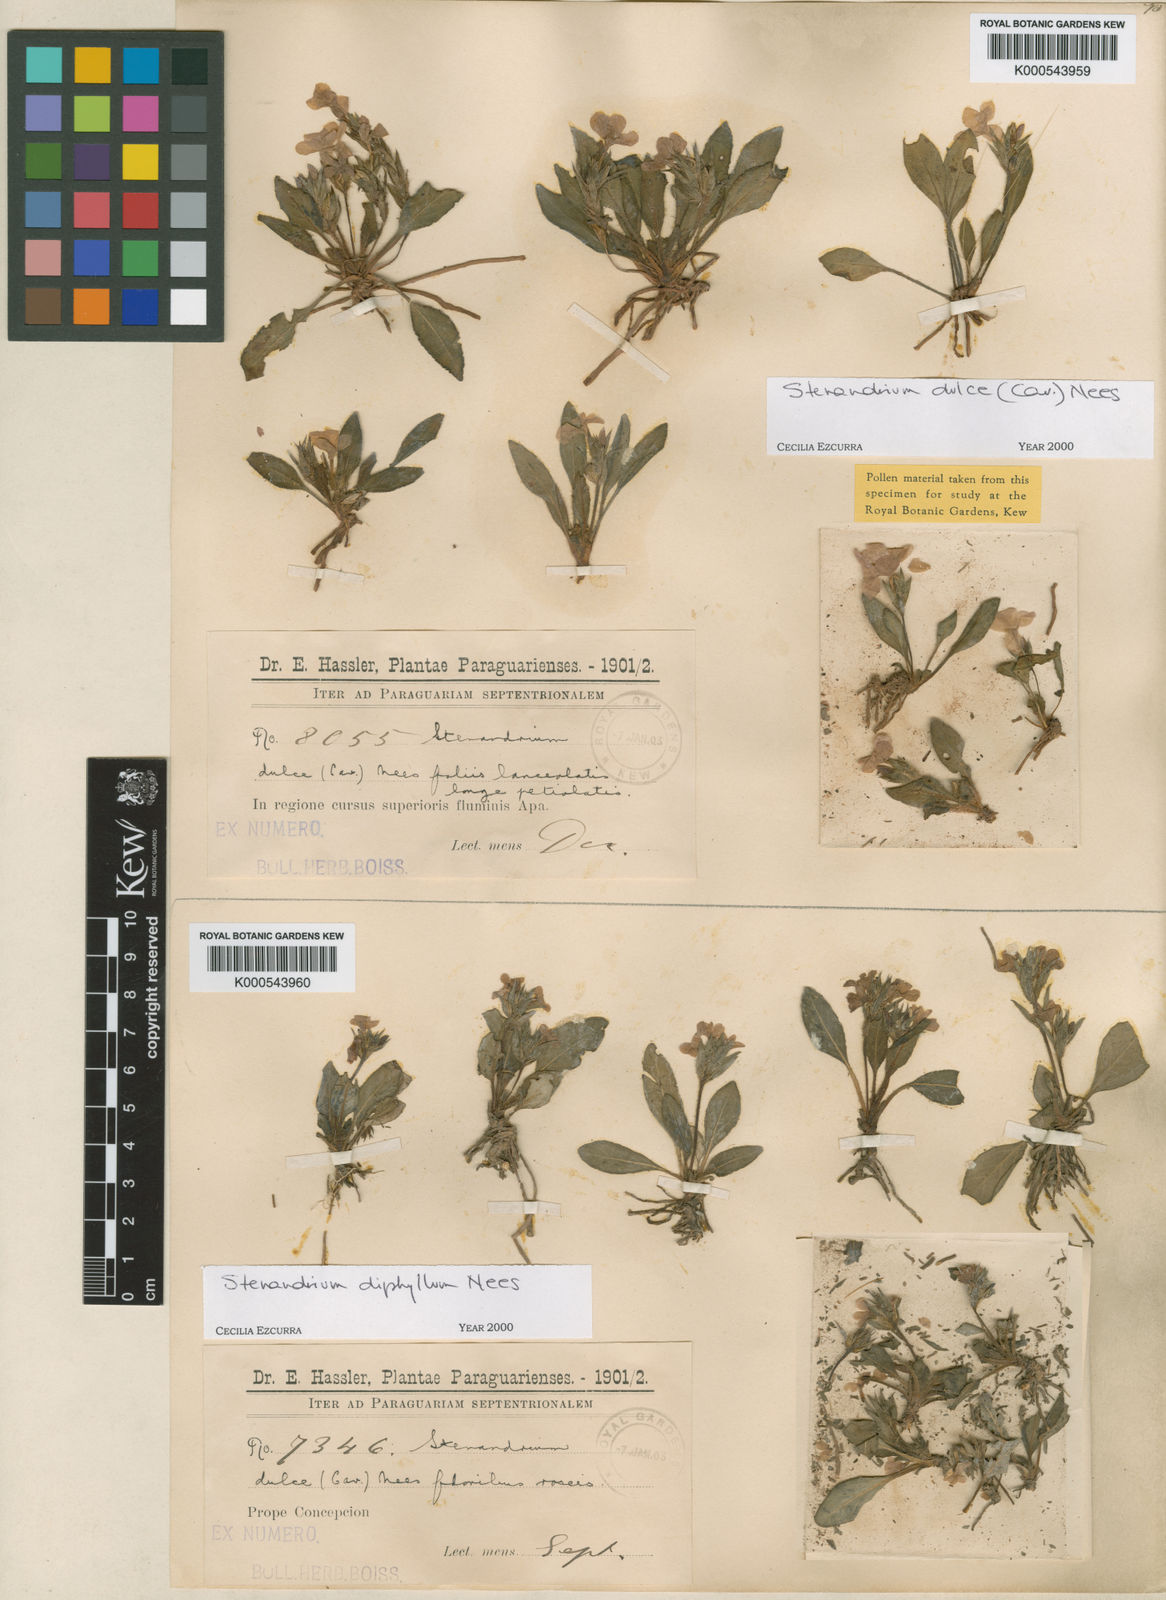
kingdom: Plantae
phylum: Tracheophyta
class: Magnoliopsida
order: Lamiales
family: Acanthaceae
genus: Stenandrium
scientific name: Stenandrium diphyllum
